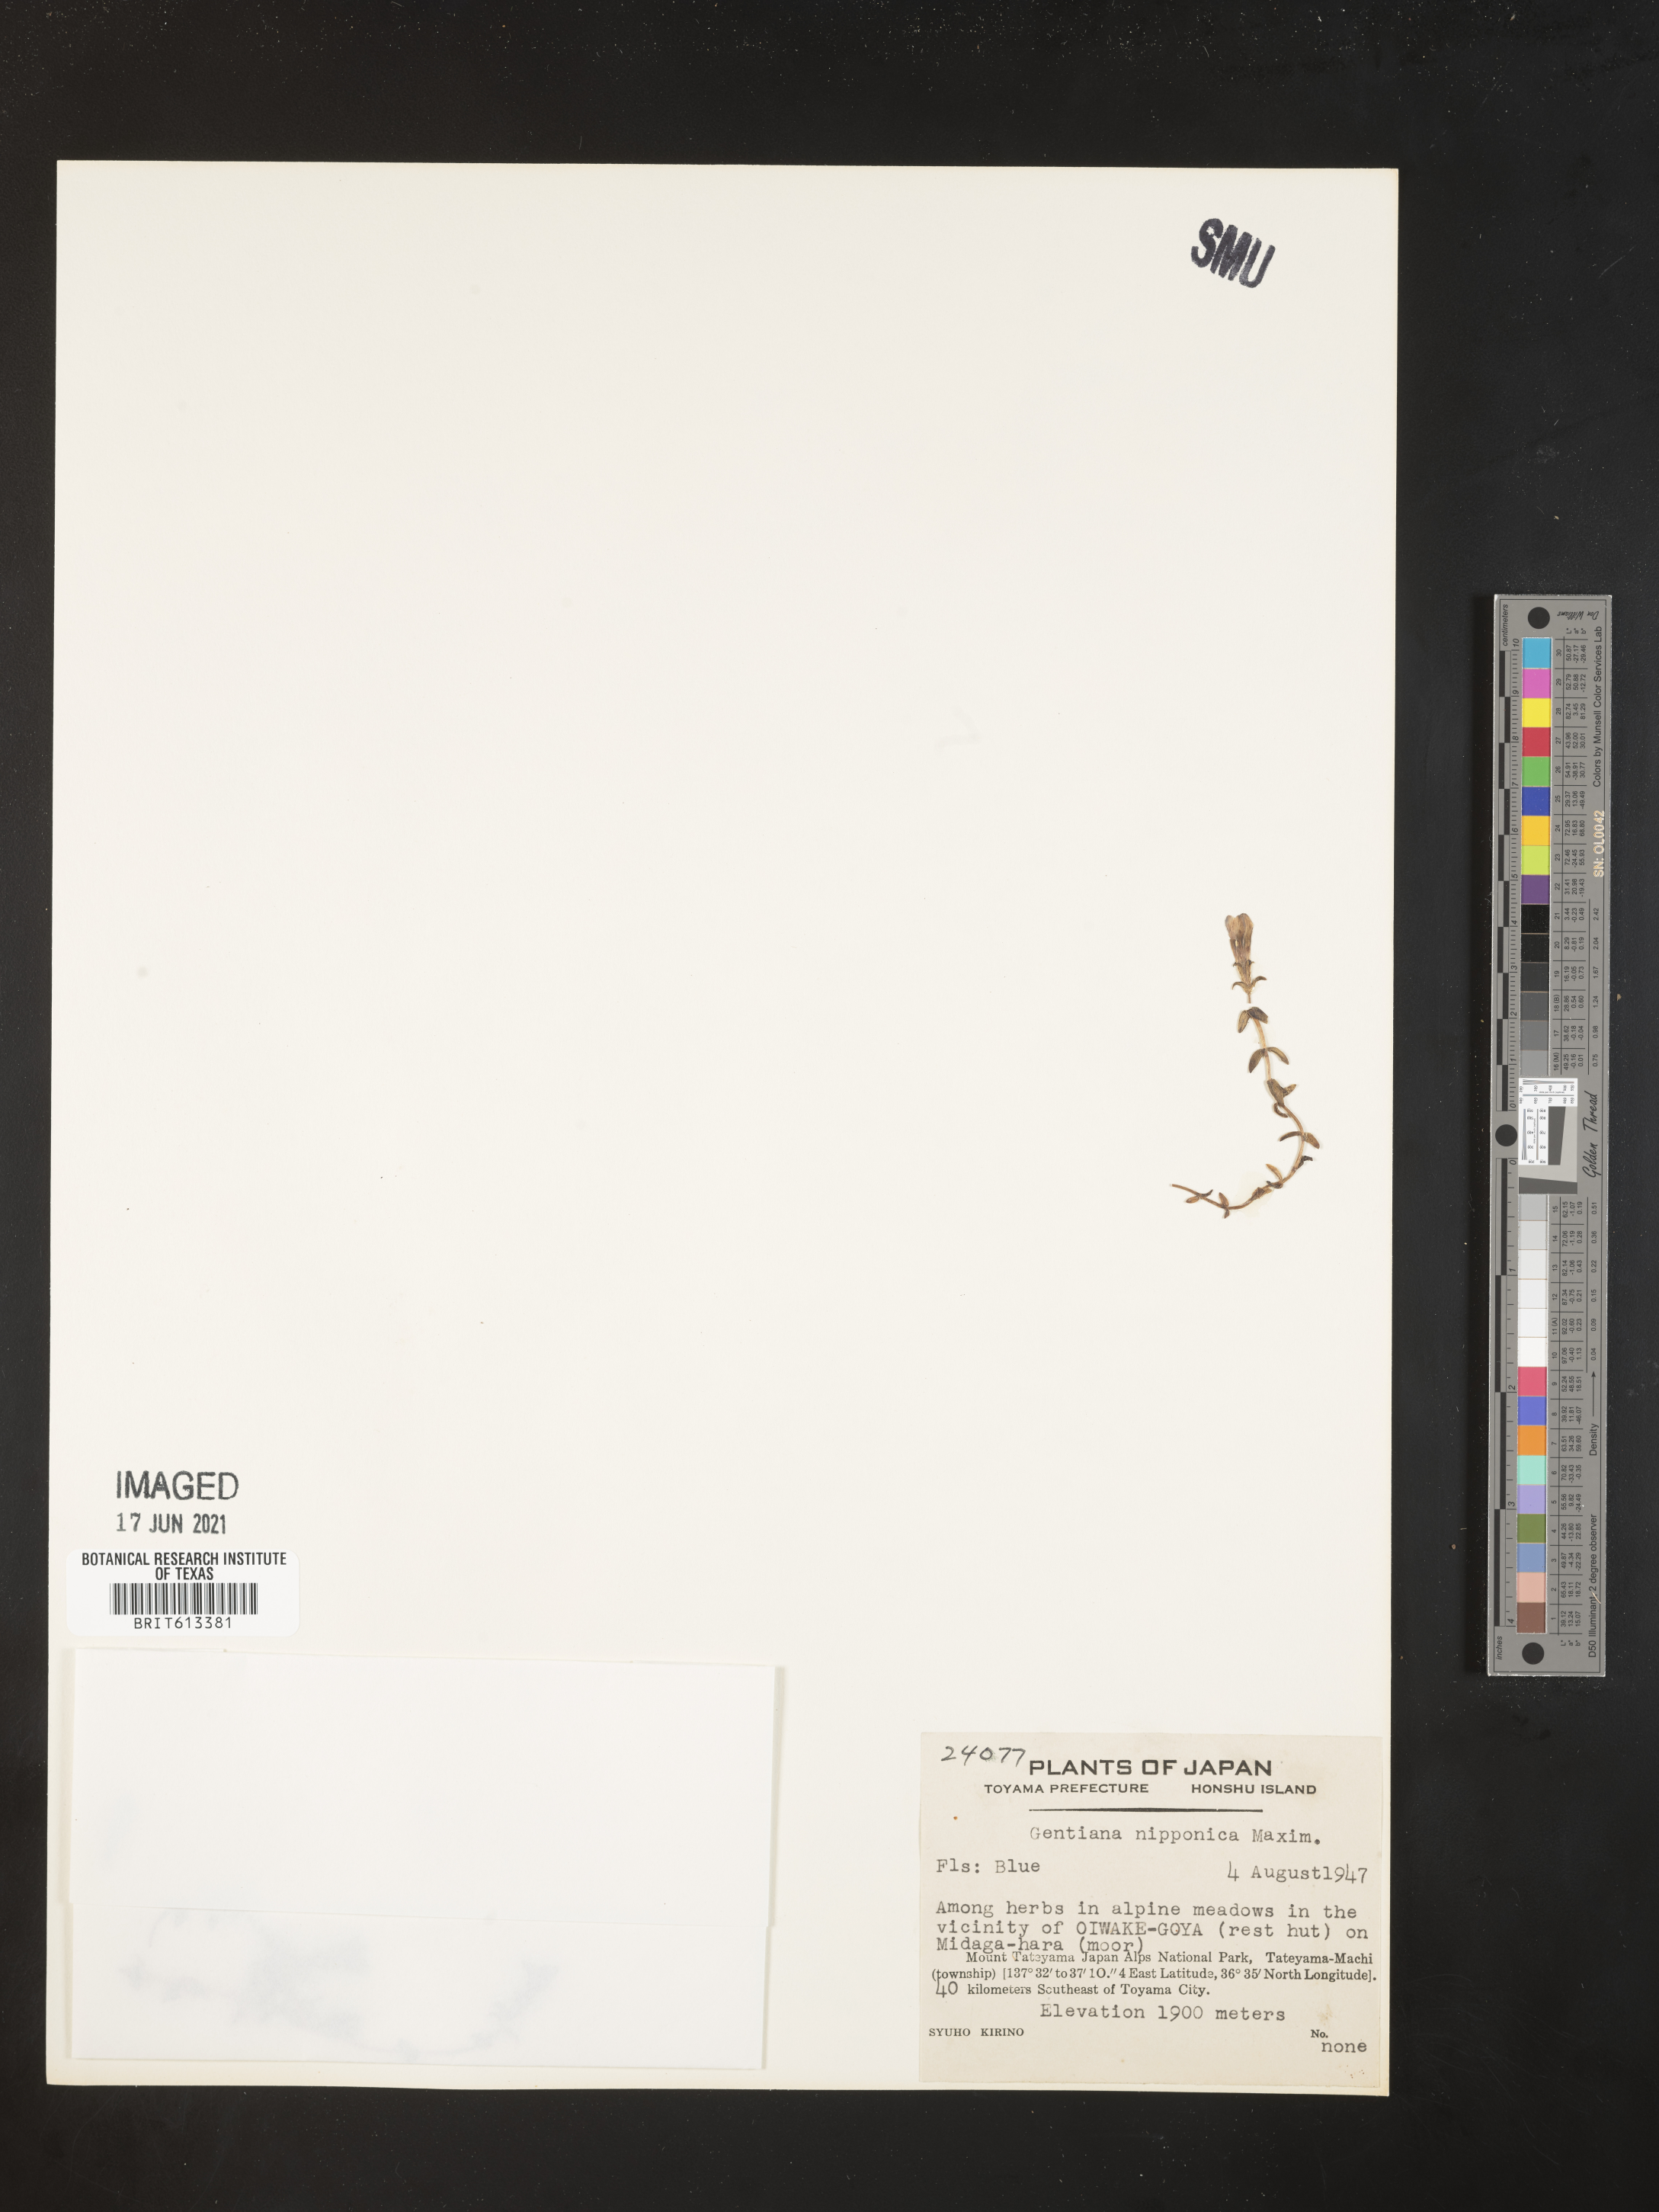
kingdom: Plantae
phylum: Tracheophyta
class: Magnoliopsida
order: Gentianales
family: Gentianaceae
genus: Gentiana
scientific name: Gentiana nipponica
